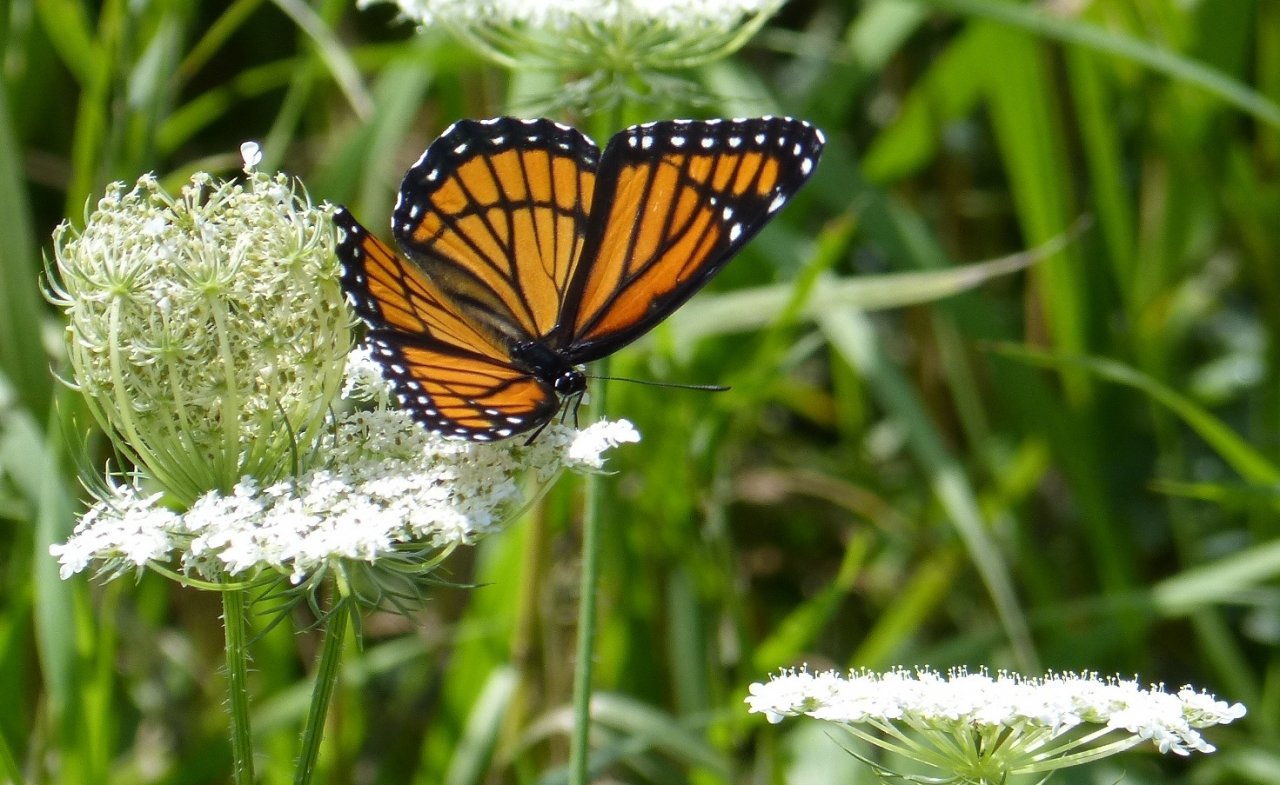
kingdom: Animalia
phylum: Arthropoda
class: Insecta
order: Lepidoptera
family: Nymphalidae
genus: Limenitis
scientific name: Limenitis archippus
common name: Viceroy
